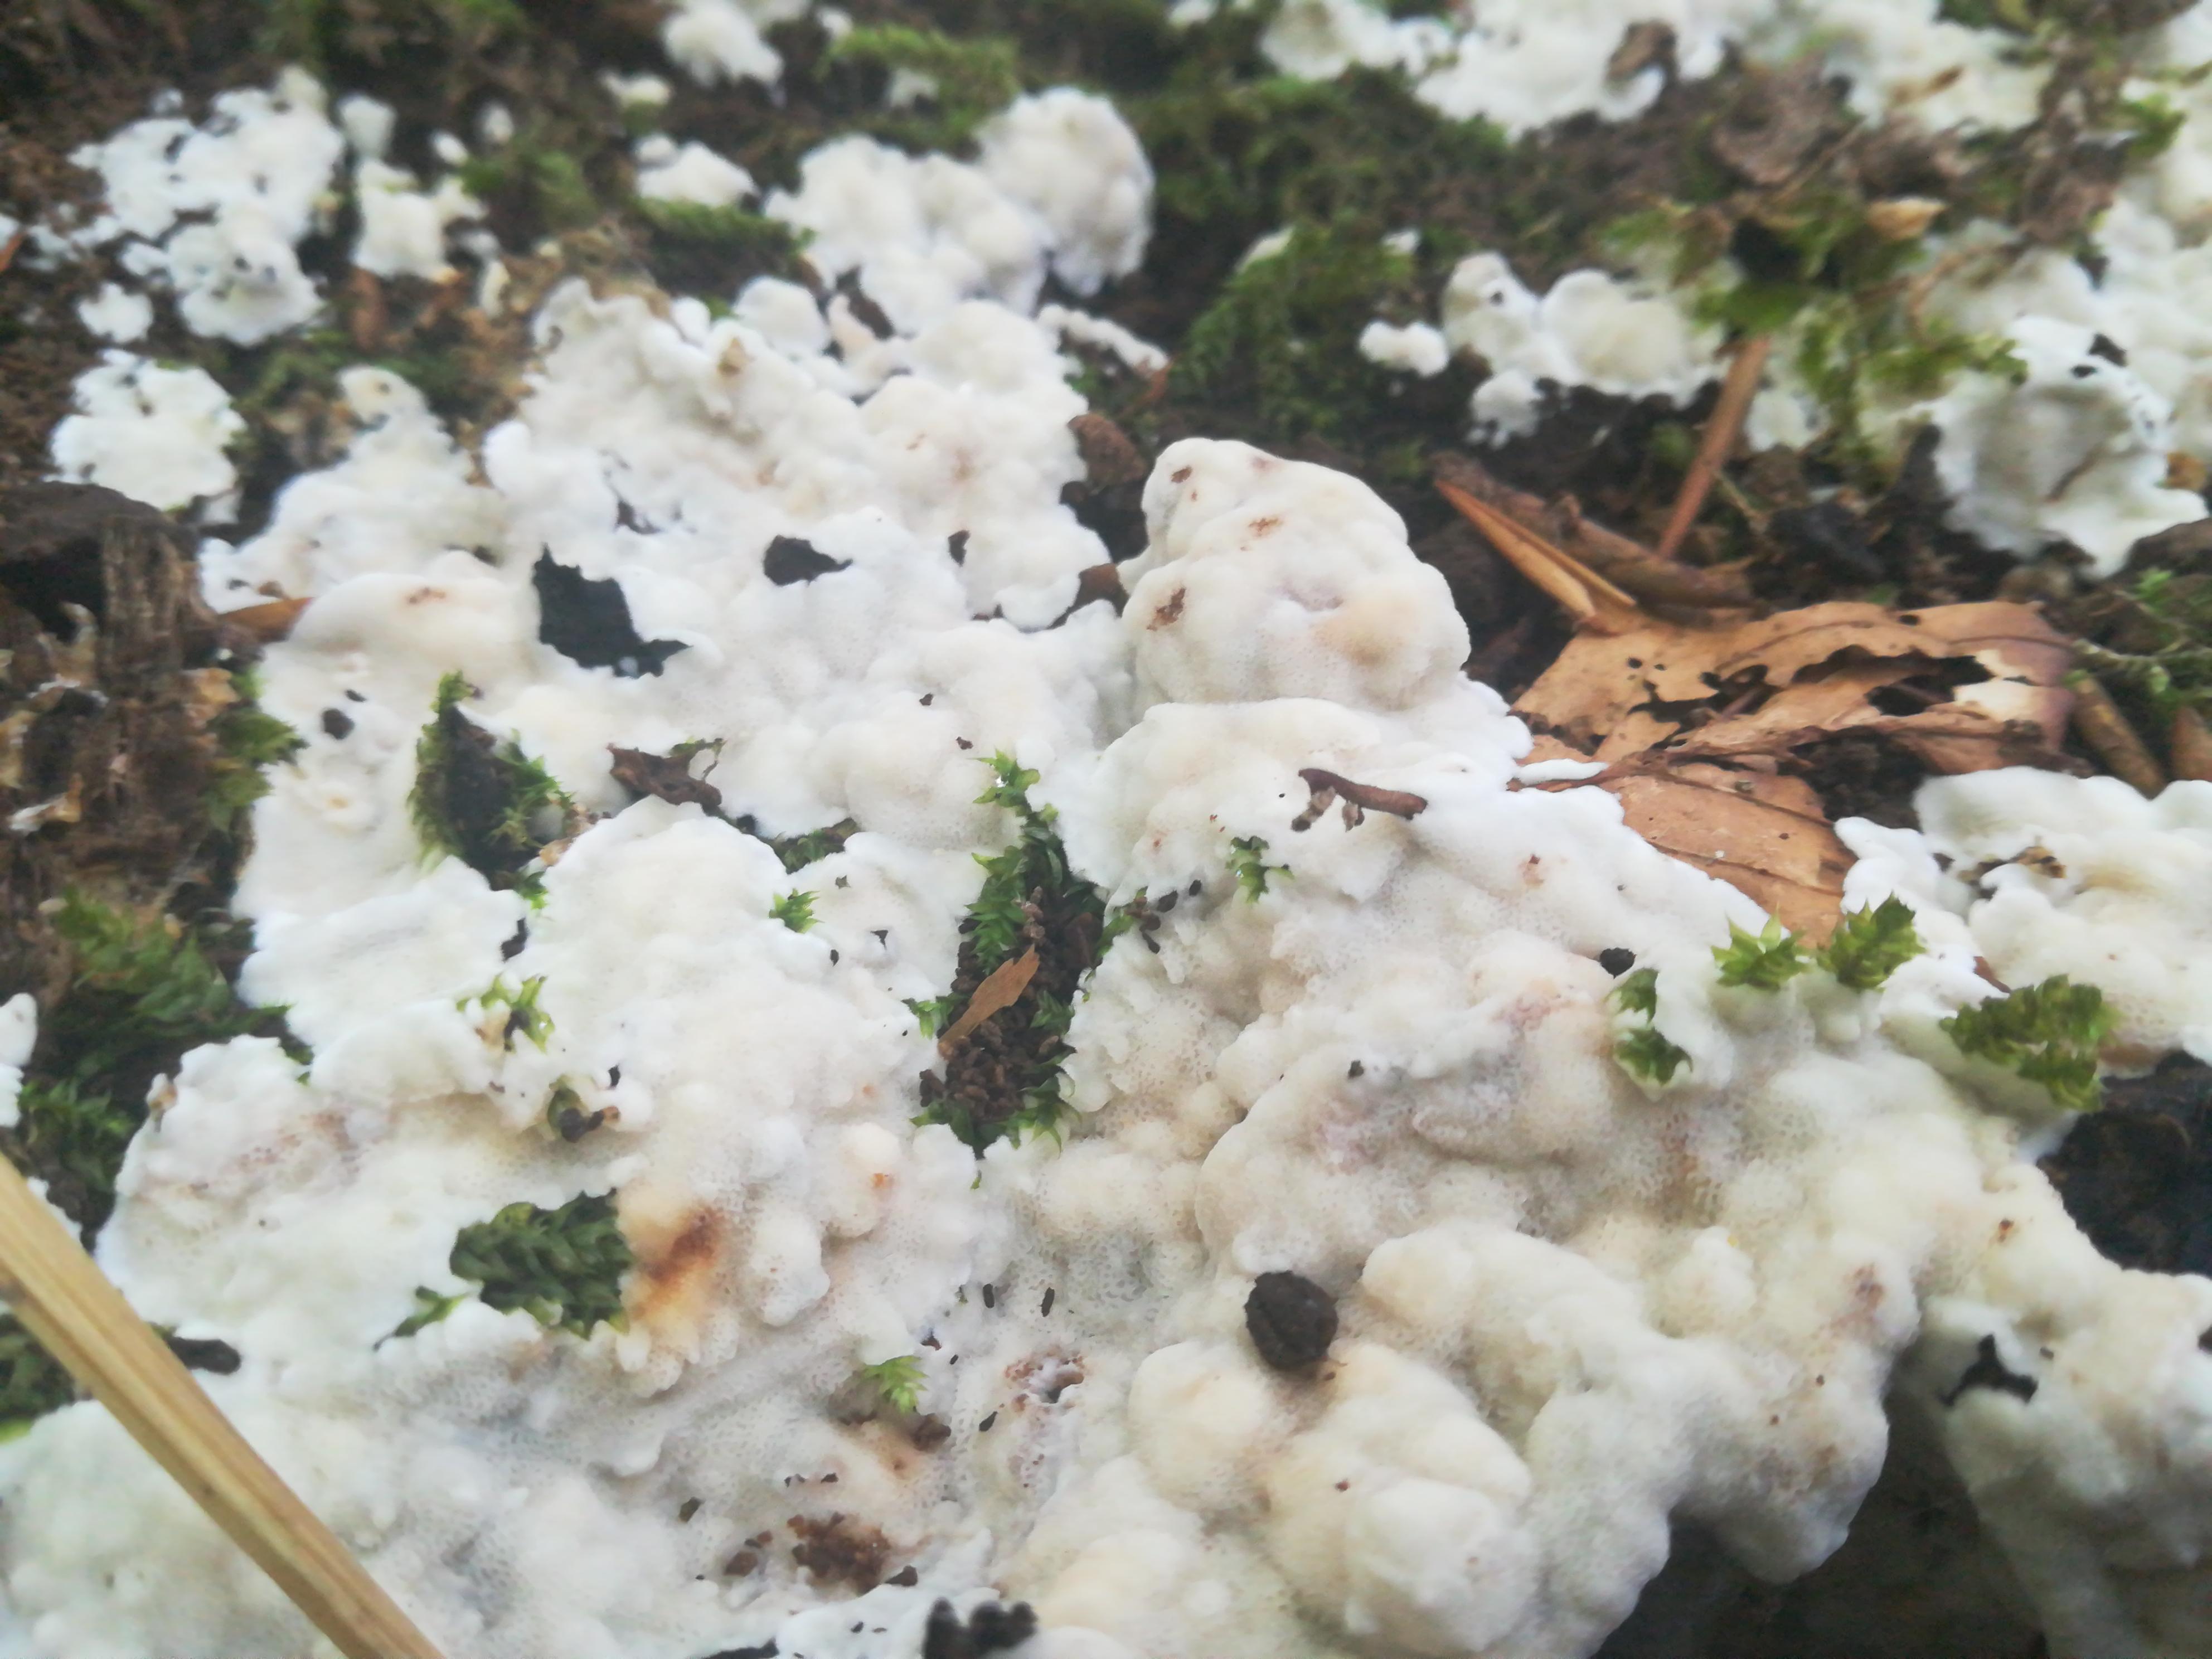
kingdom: Fungi
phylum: Basidiomycota
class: Agaricomycetes
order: Polyporales
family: Meruliaceae
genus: Physisporinus
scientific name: Physisporinus vitreus
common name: mastesvamp
